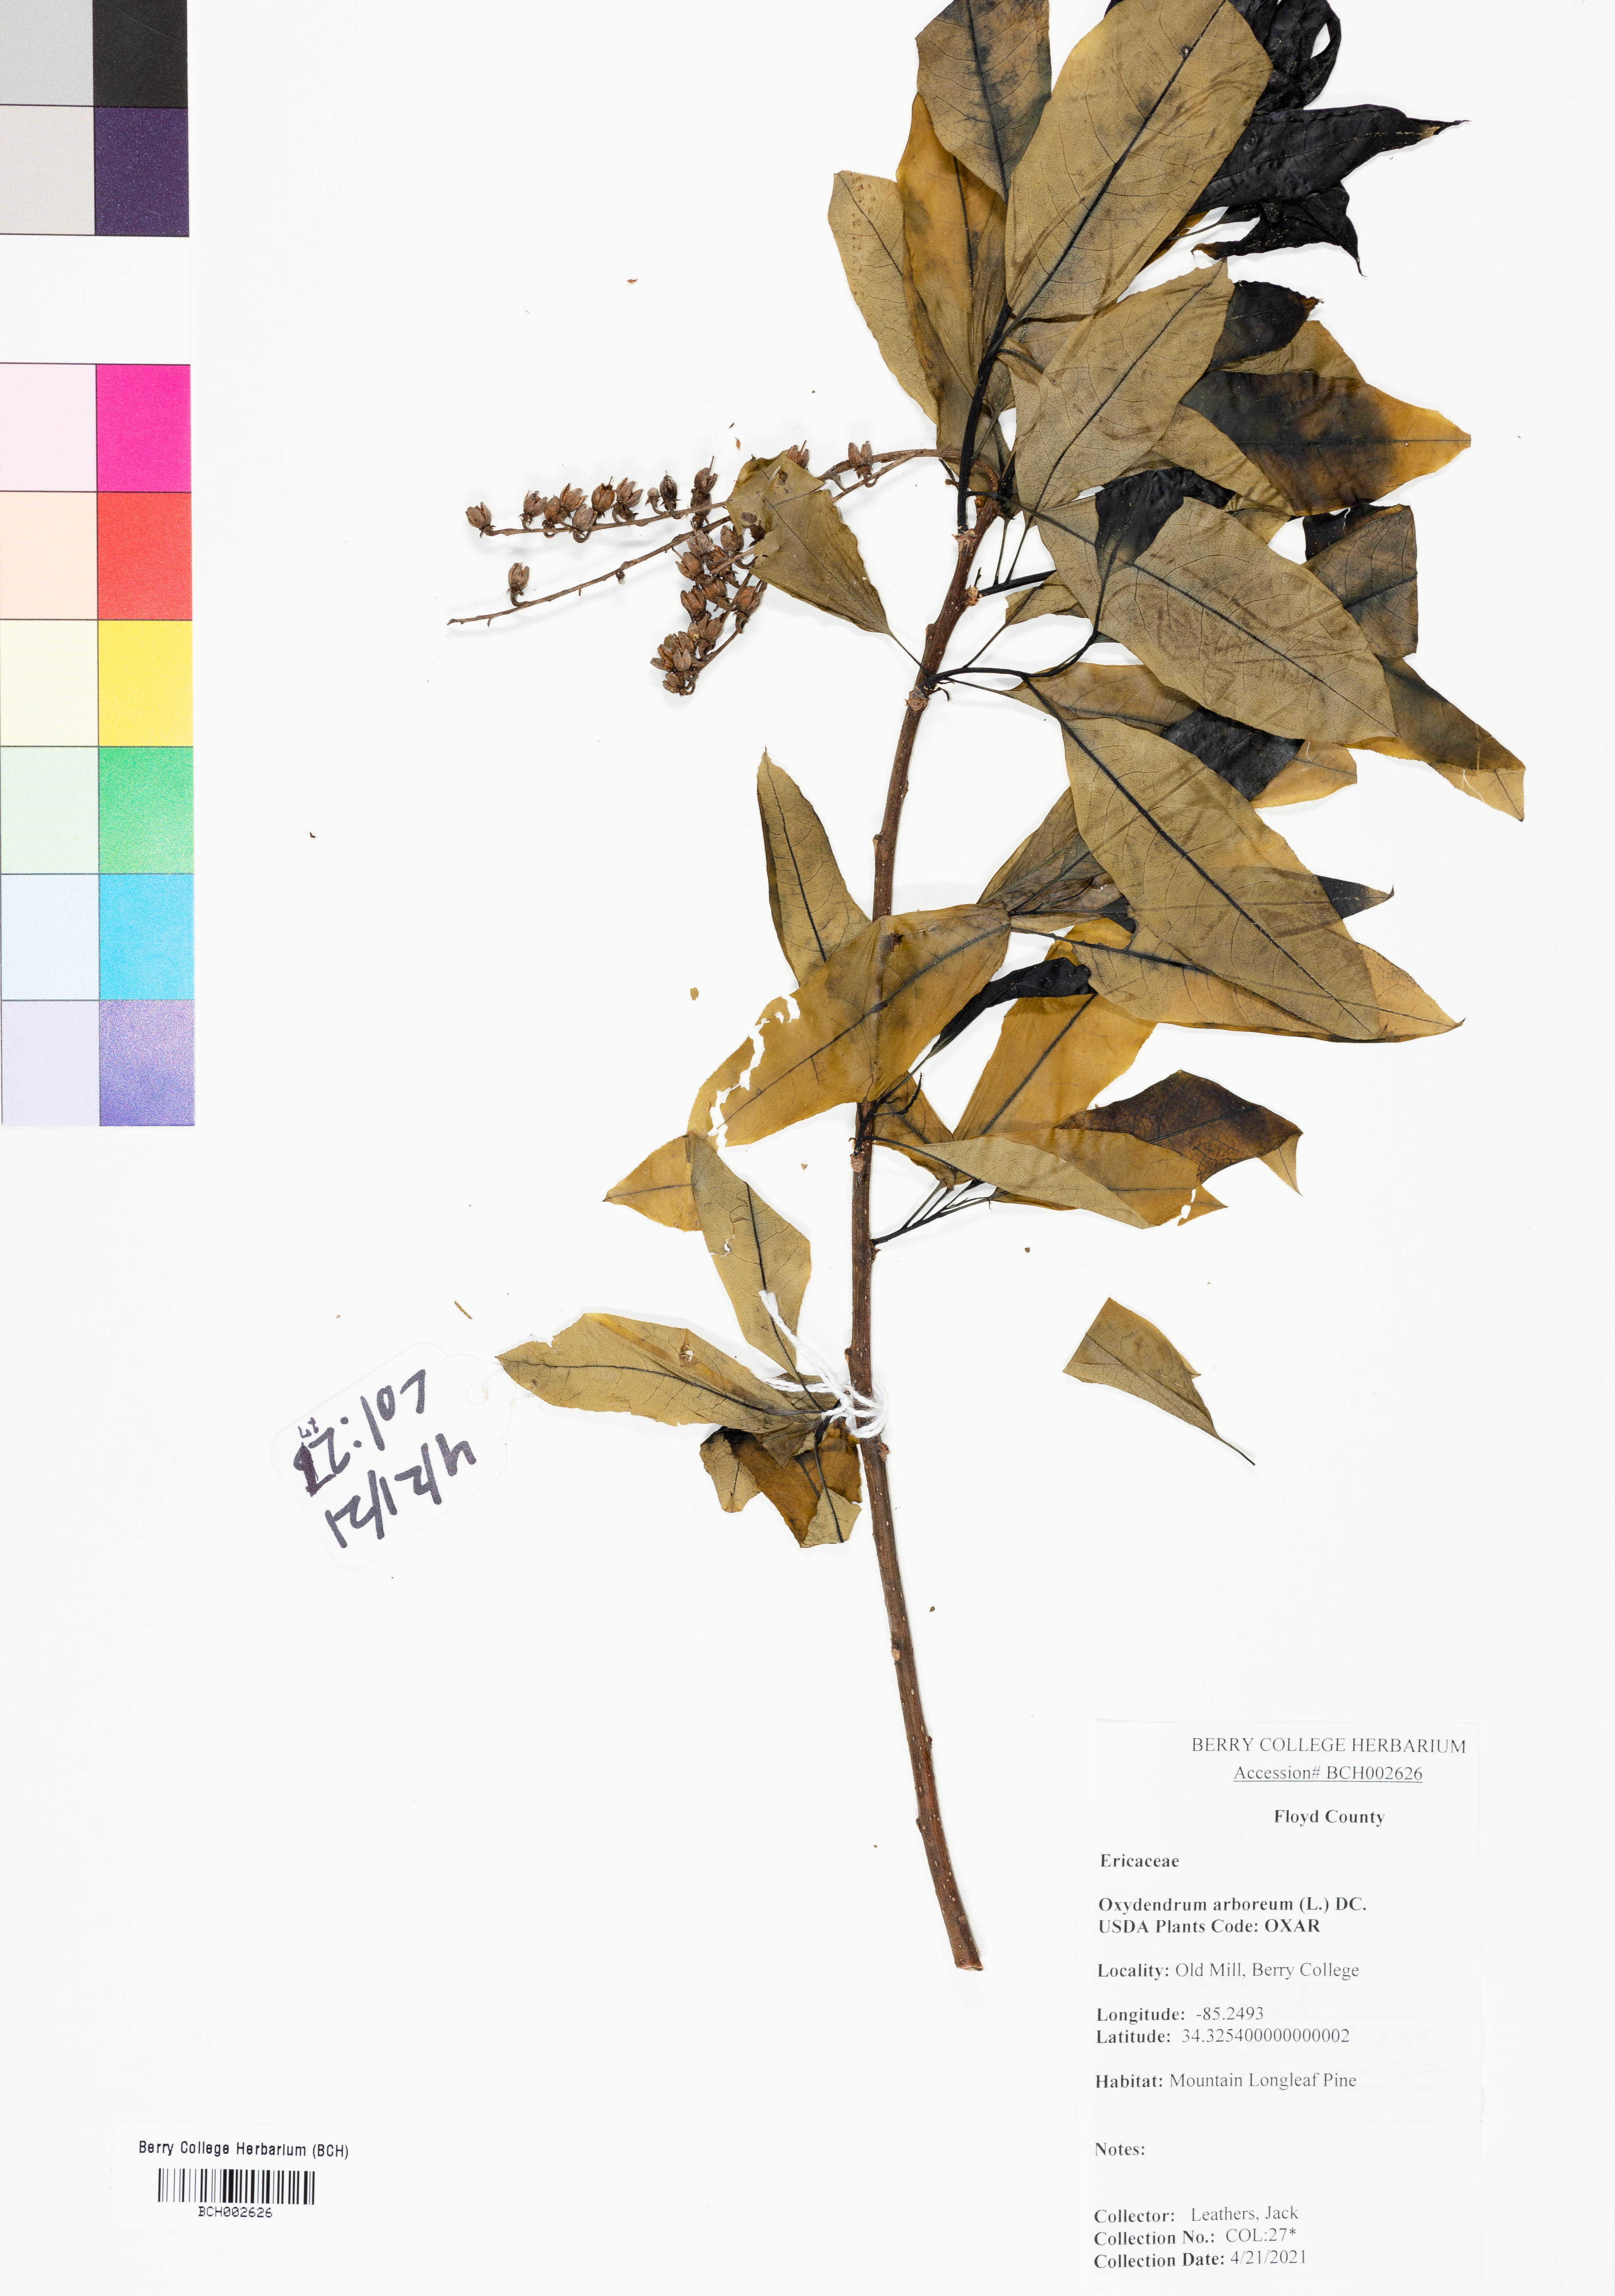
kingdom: Plantae
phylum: Tracheophyta
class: Magnoliopsida
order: Ericales
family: Ericaceae
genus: Oxydendrum
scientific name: Oxydendrum arboreum
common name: Sourwood
